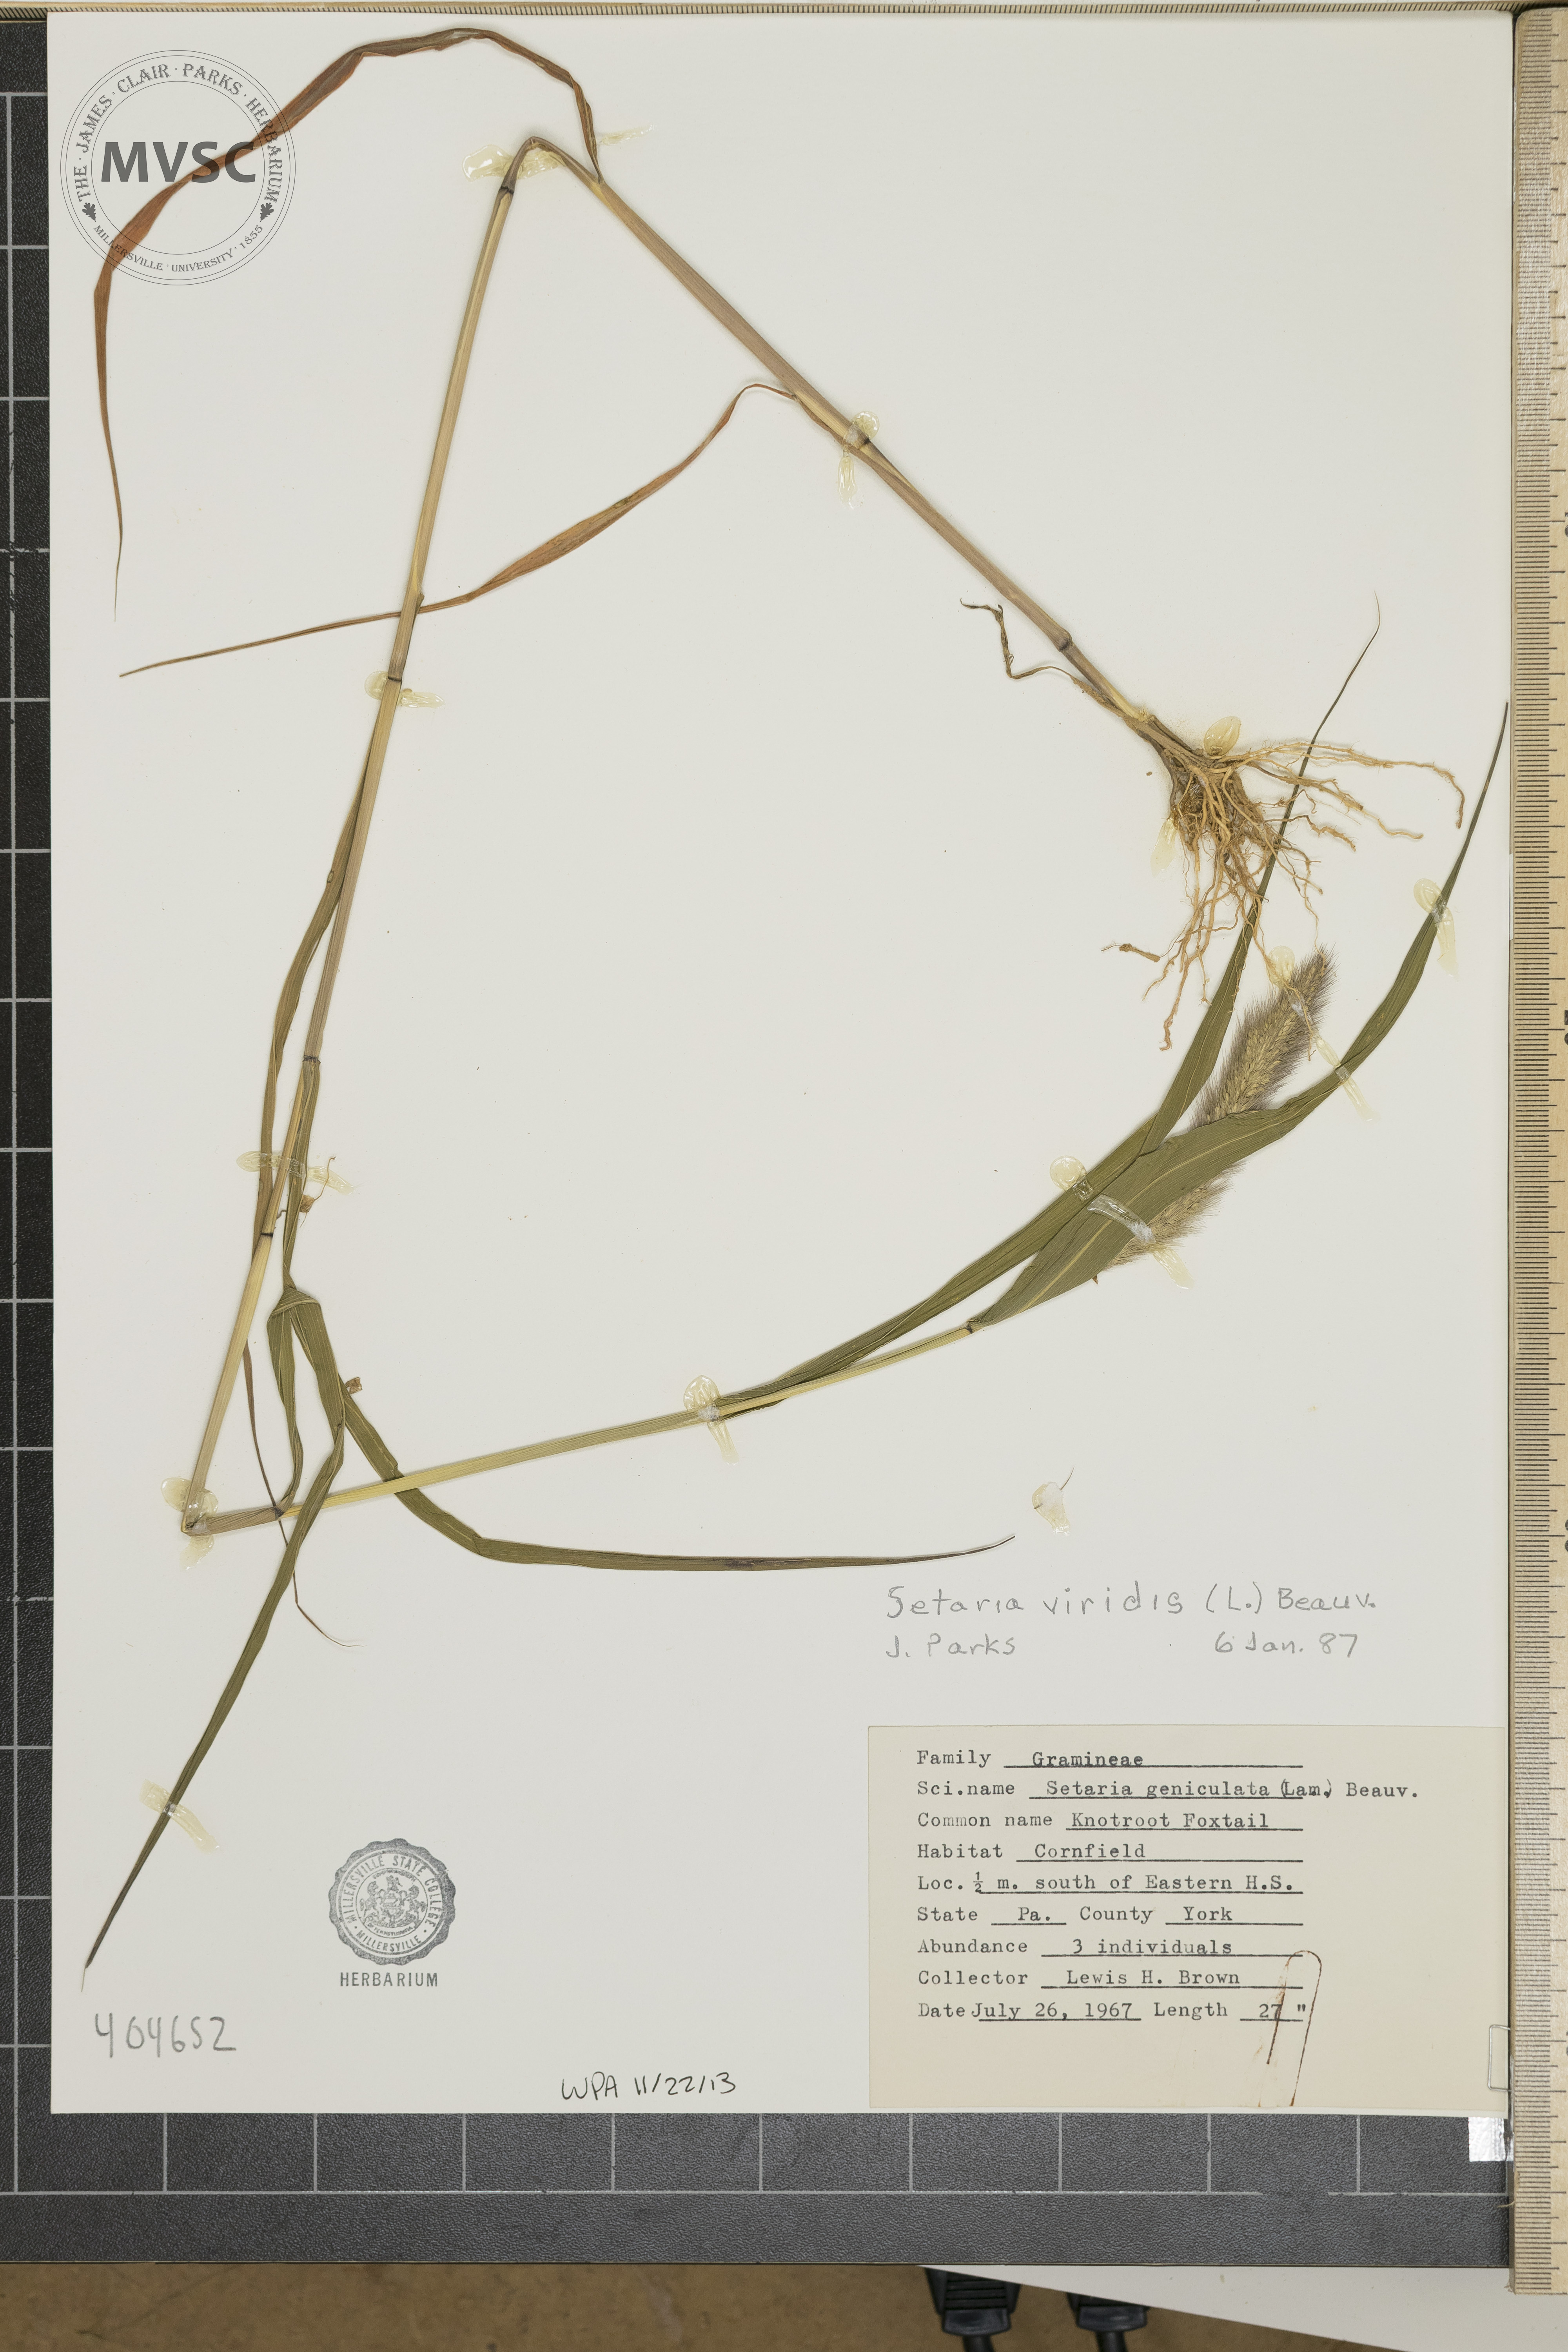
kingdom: Plantae
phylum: Tracheophyta
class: Liliopsida
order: Poales
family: Poaceae
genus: Setaria
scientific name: Setaria viridis
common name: Knotroot Foxtail
